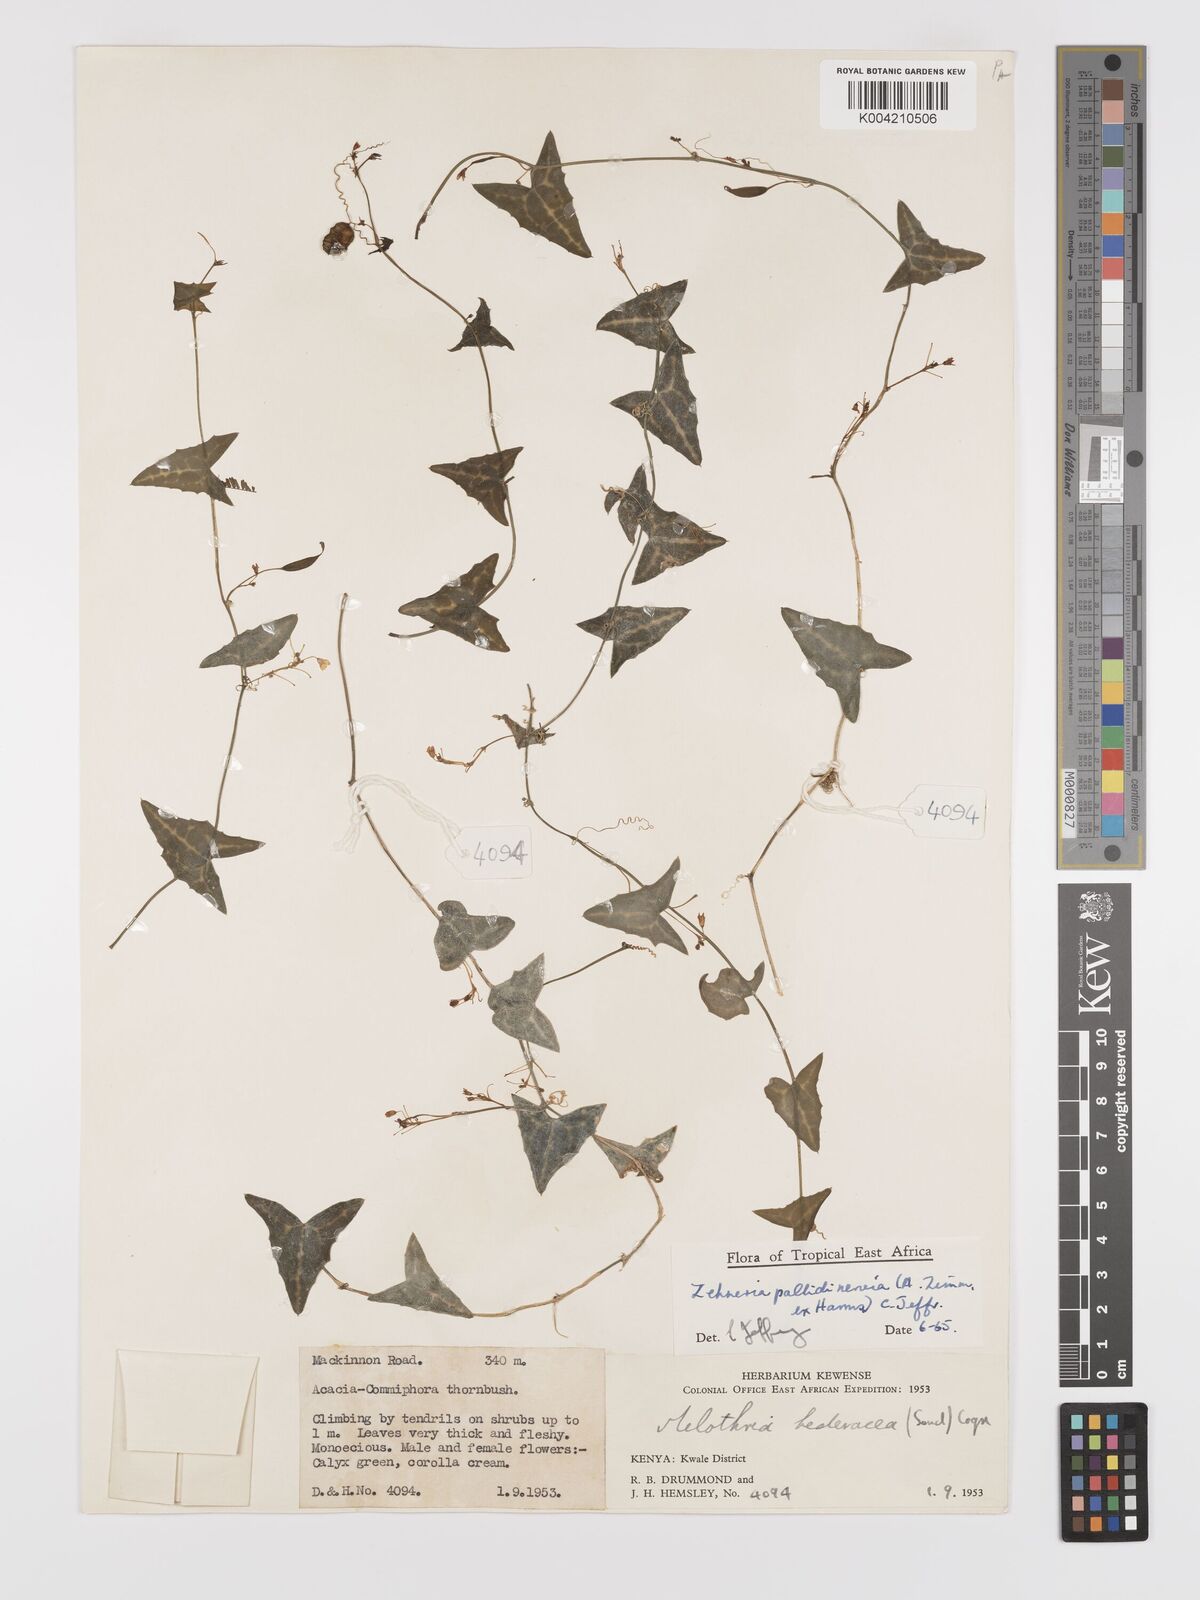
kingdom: Plantae
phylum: Tracheophyta
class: Magnoliopsida
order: Cucurbitales
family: Cucurbitaceae
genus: Zehneria
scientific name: Zehneria pallidinervia
